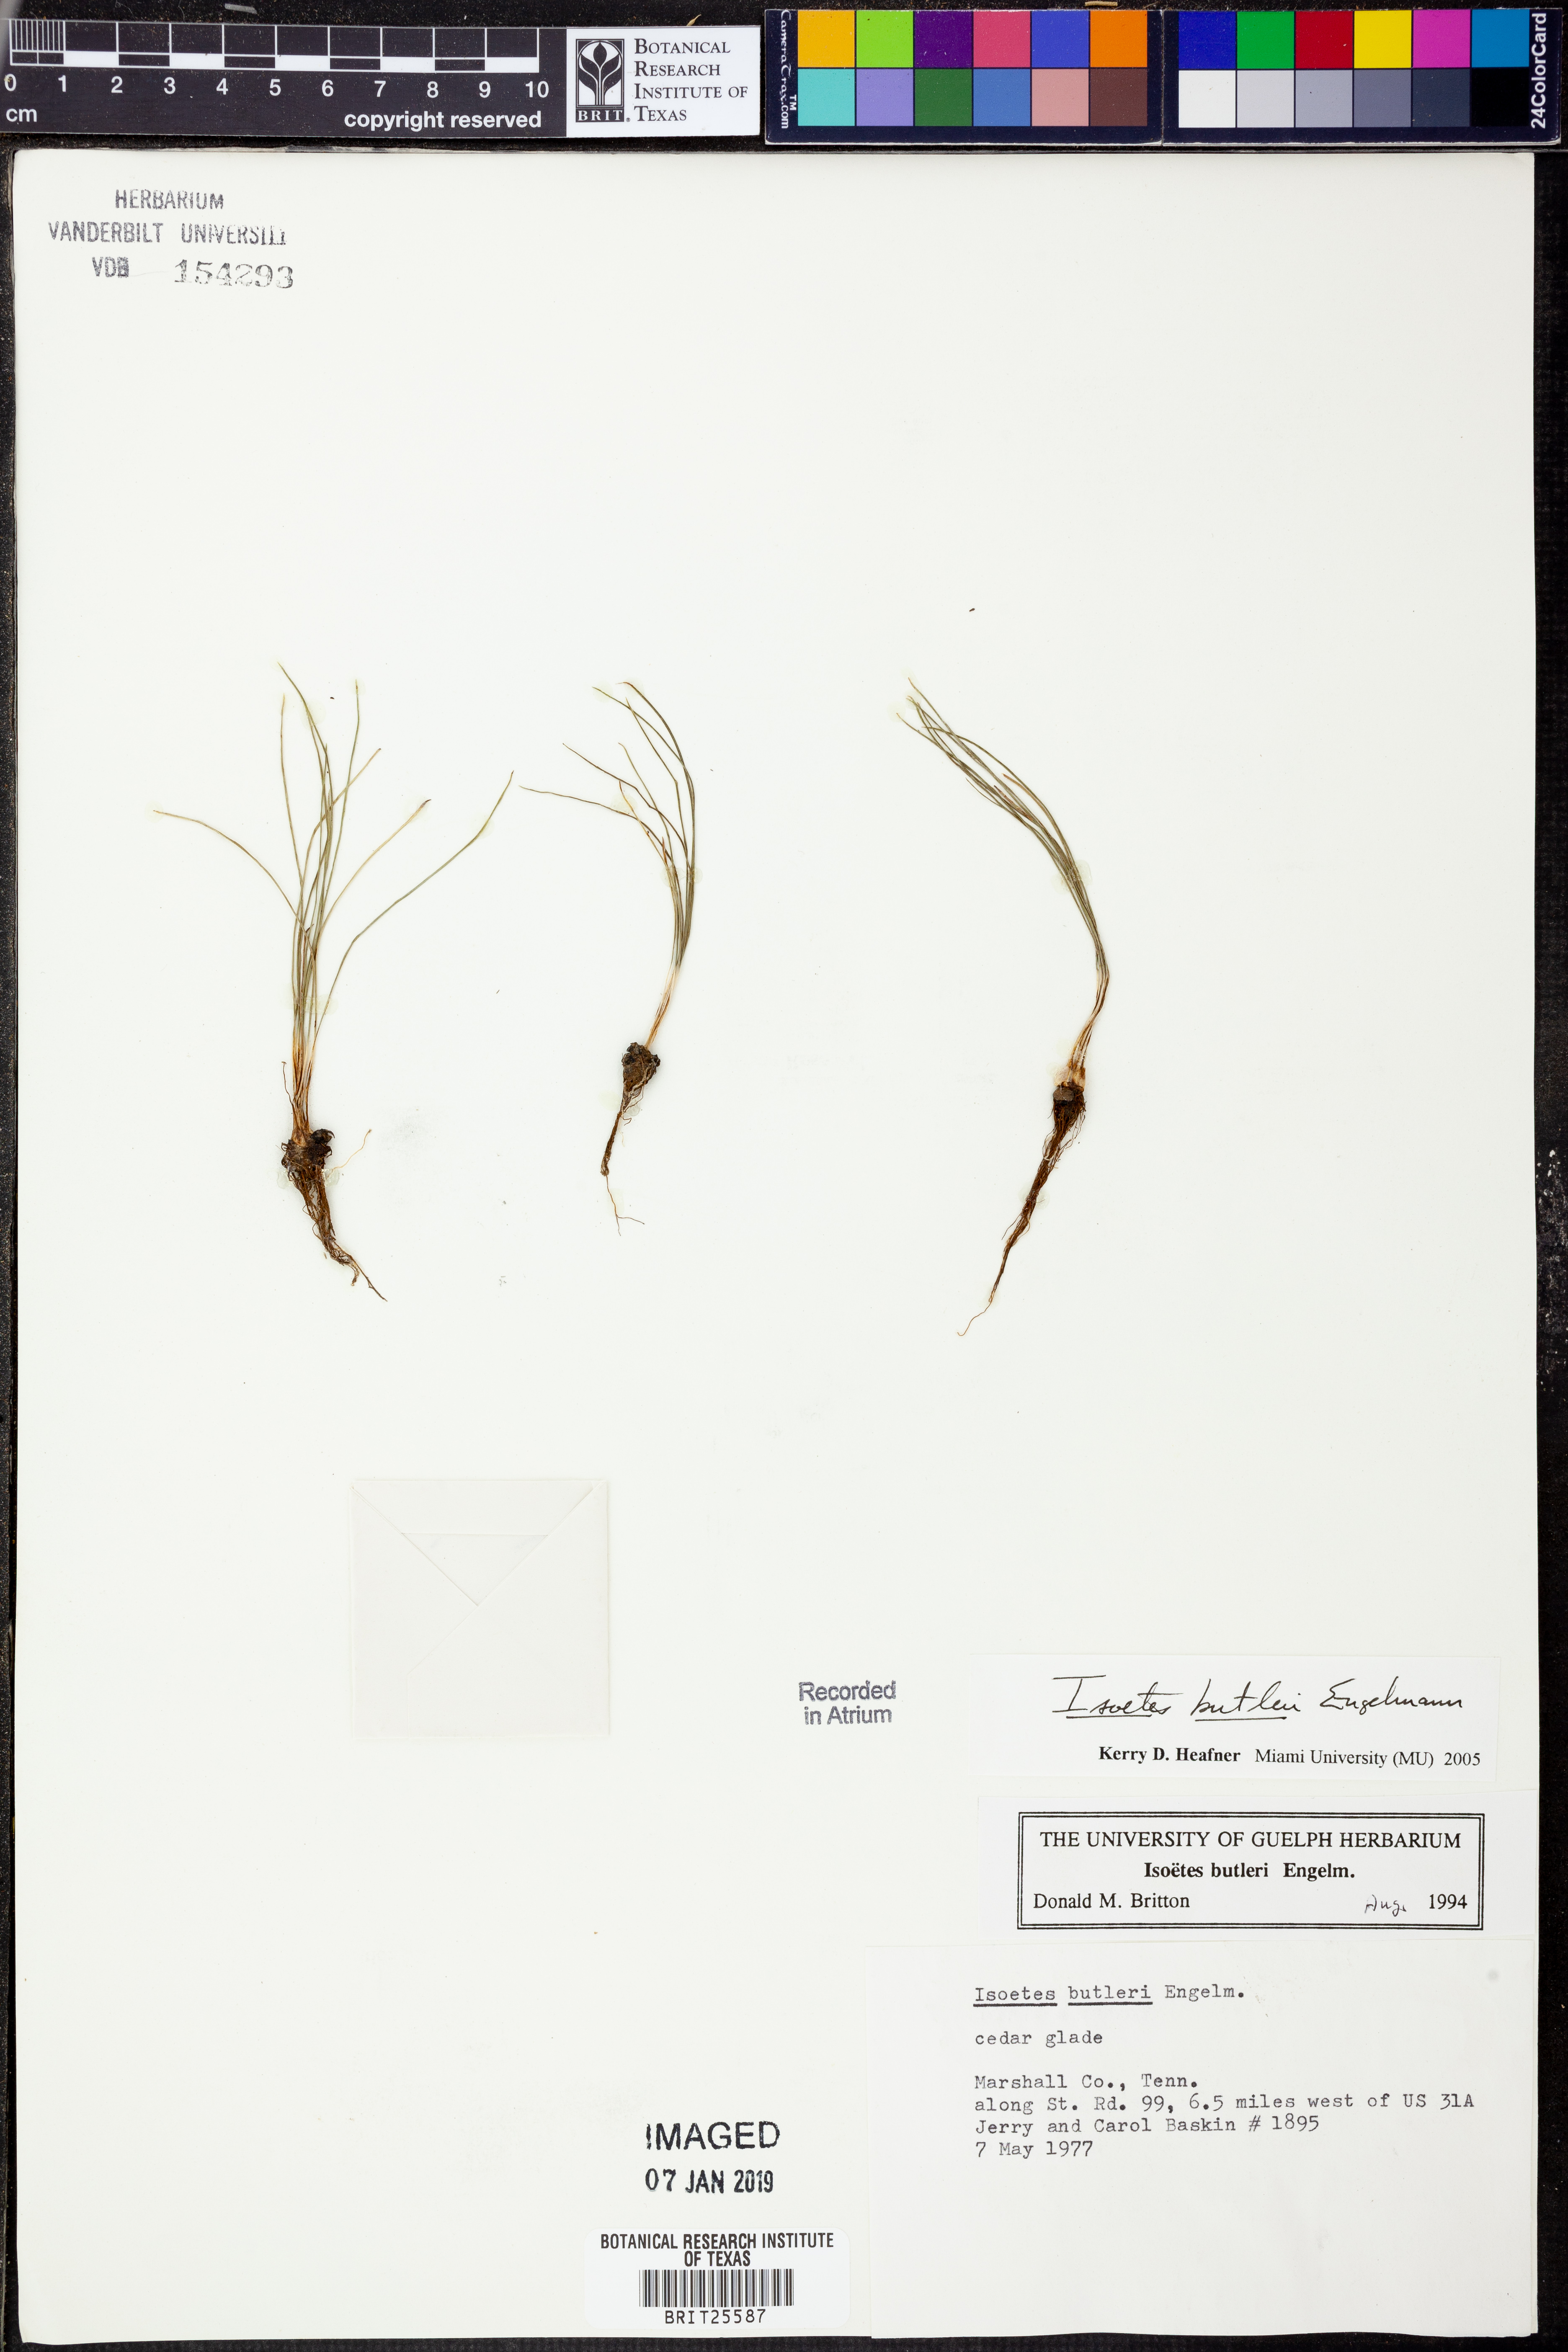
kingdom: Plantae
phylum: Tracheophyta
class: Lycopodiopsida
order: Isoetales
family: Isoetaceae
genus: Isoetes
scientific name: Isoetes butleri
